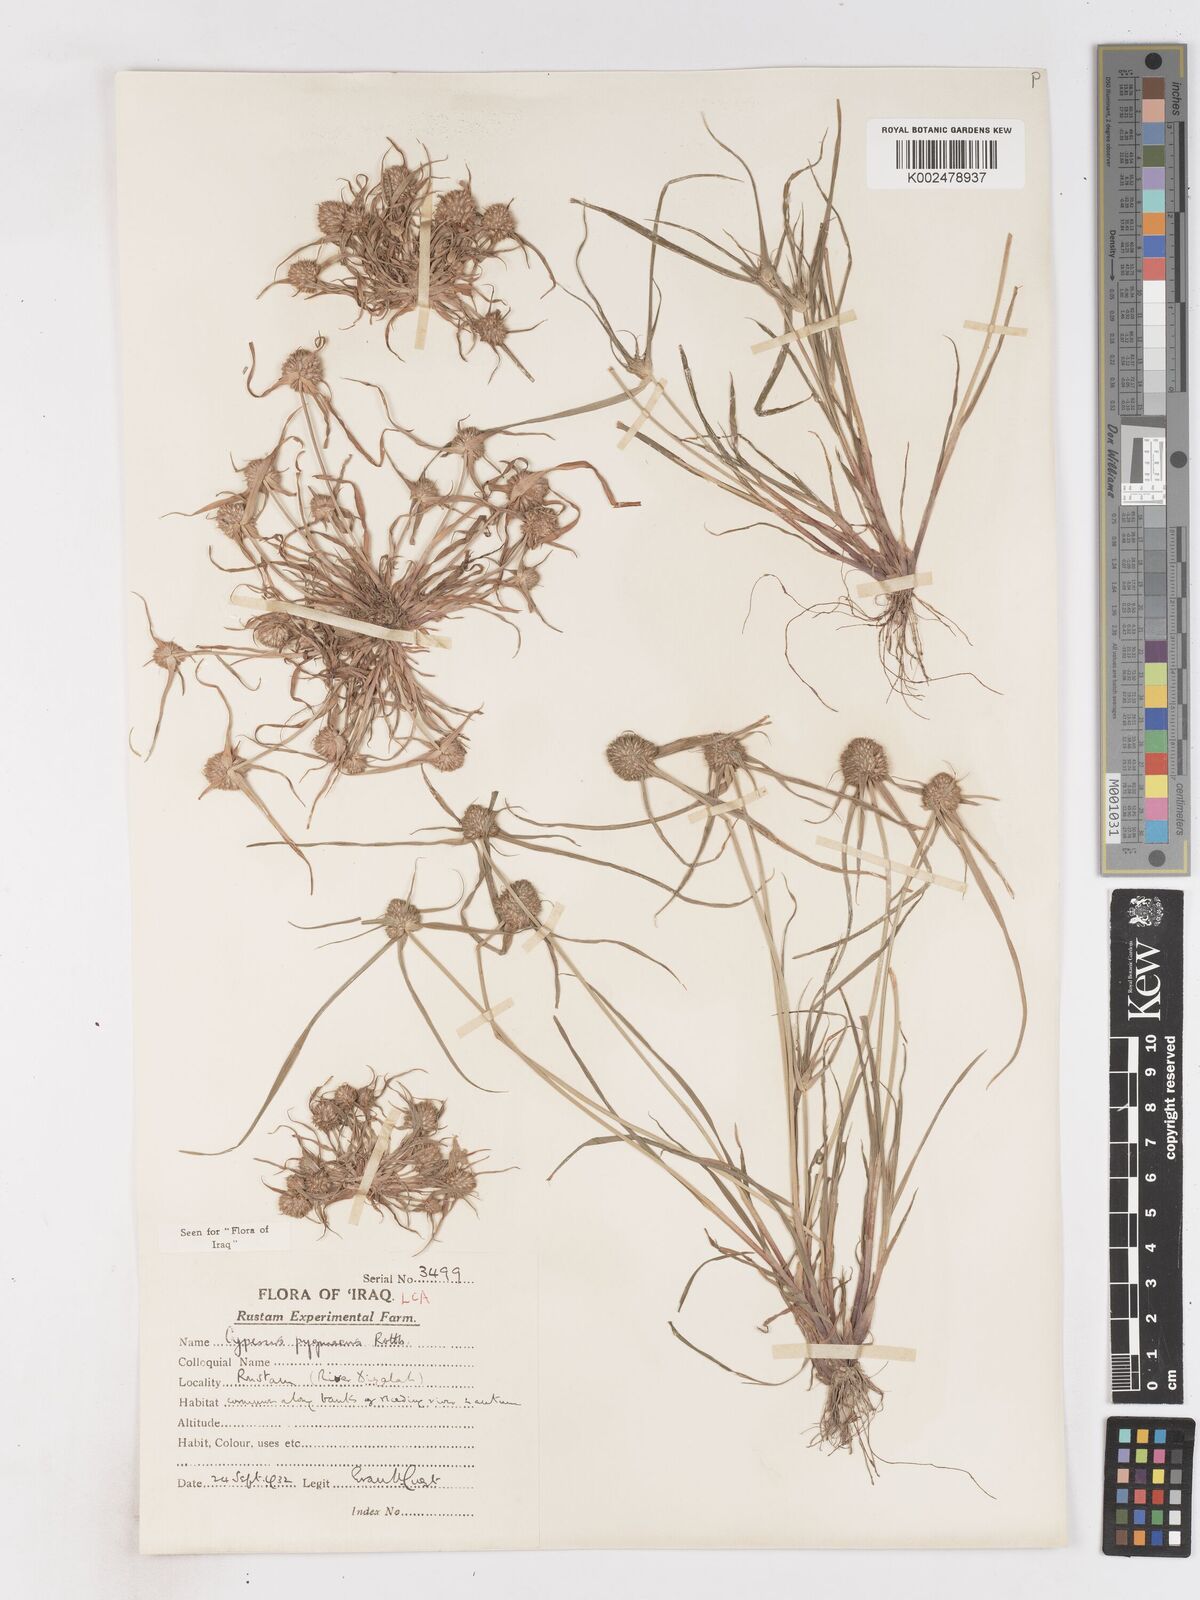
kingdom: Plantae
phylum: Tracheophyta
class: Liliopsida
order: Poales
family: Cyperaceae
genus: Cyperus
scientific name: Cyperus michelianus
